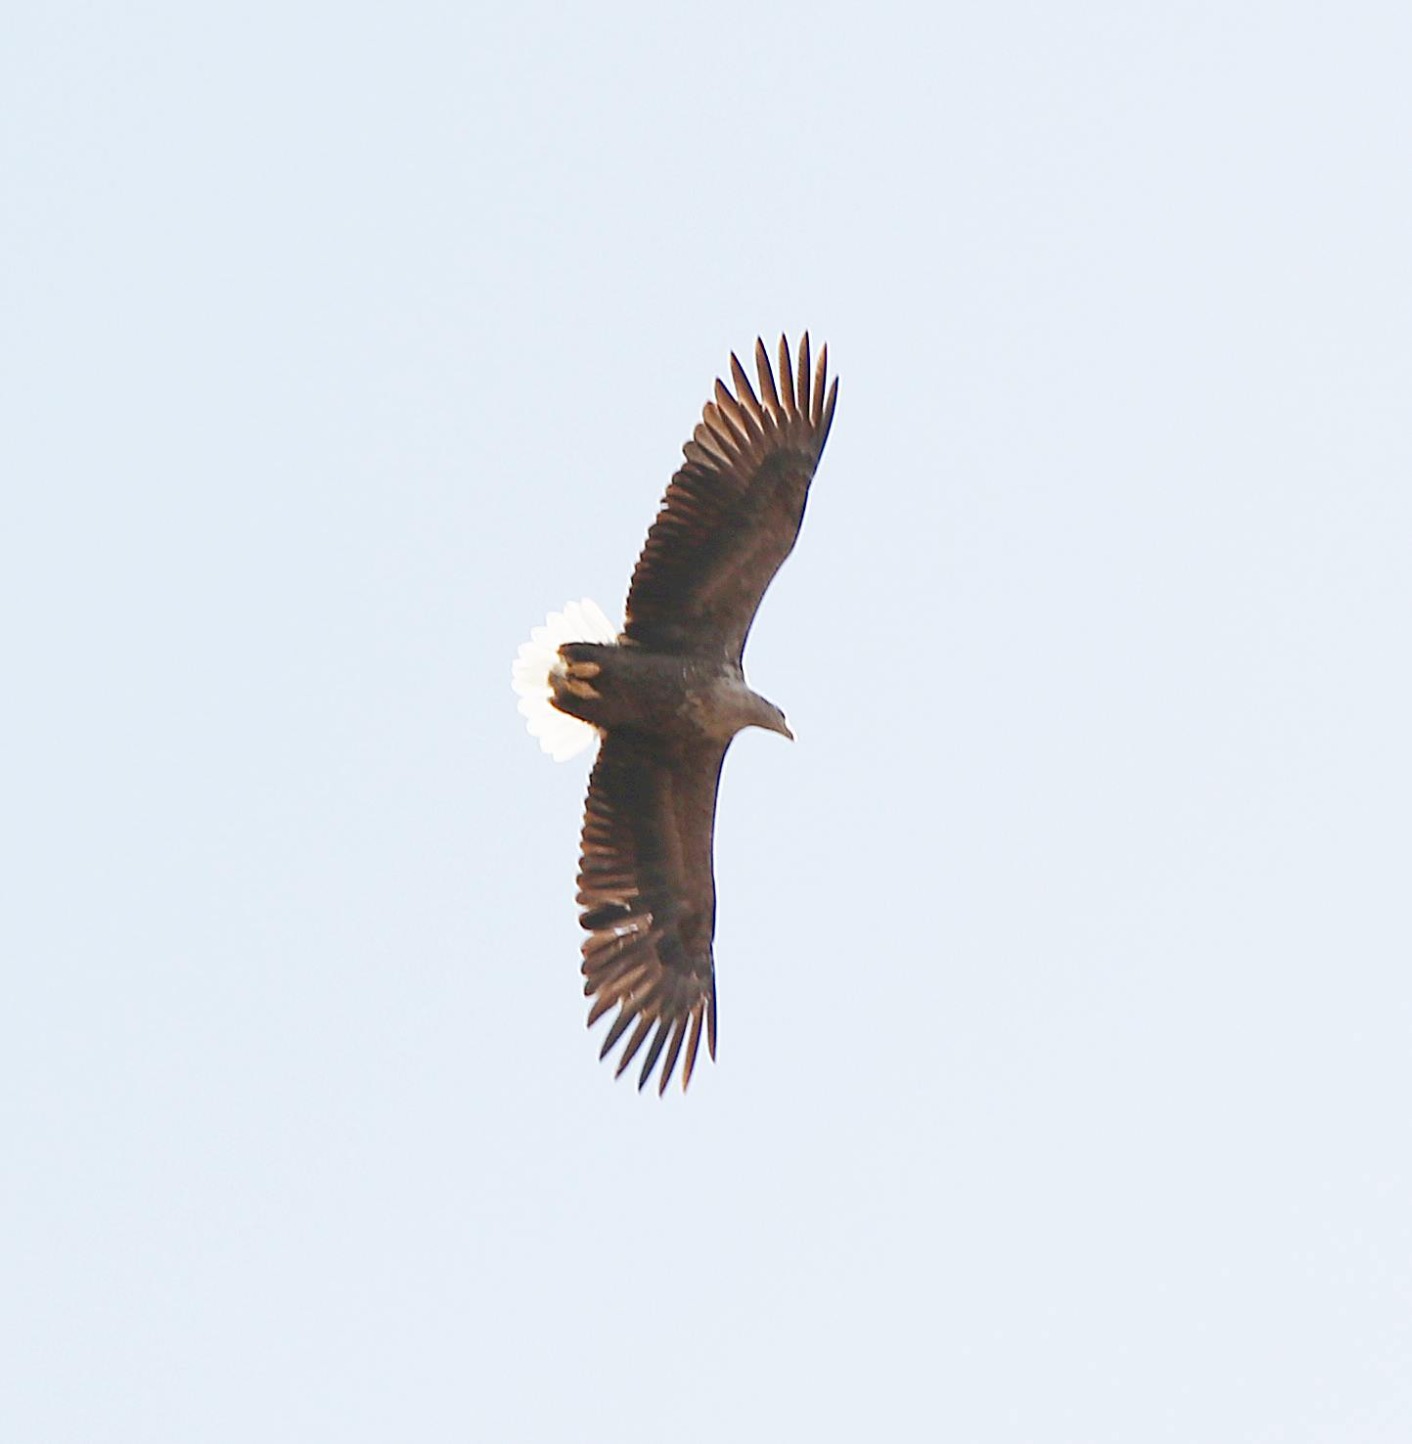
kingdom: Animalia
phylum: Chordata
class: Aves
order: Accipitriformes
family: Accipitridae
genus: Haliaeetus
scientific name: Haliaeetus albicilla
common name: Havørn
